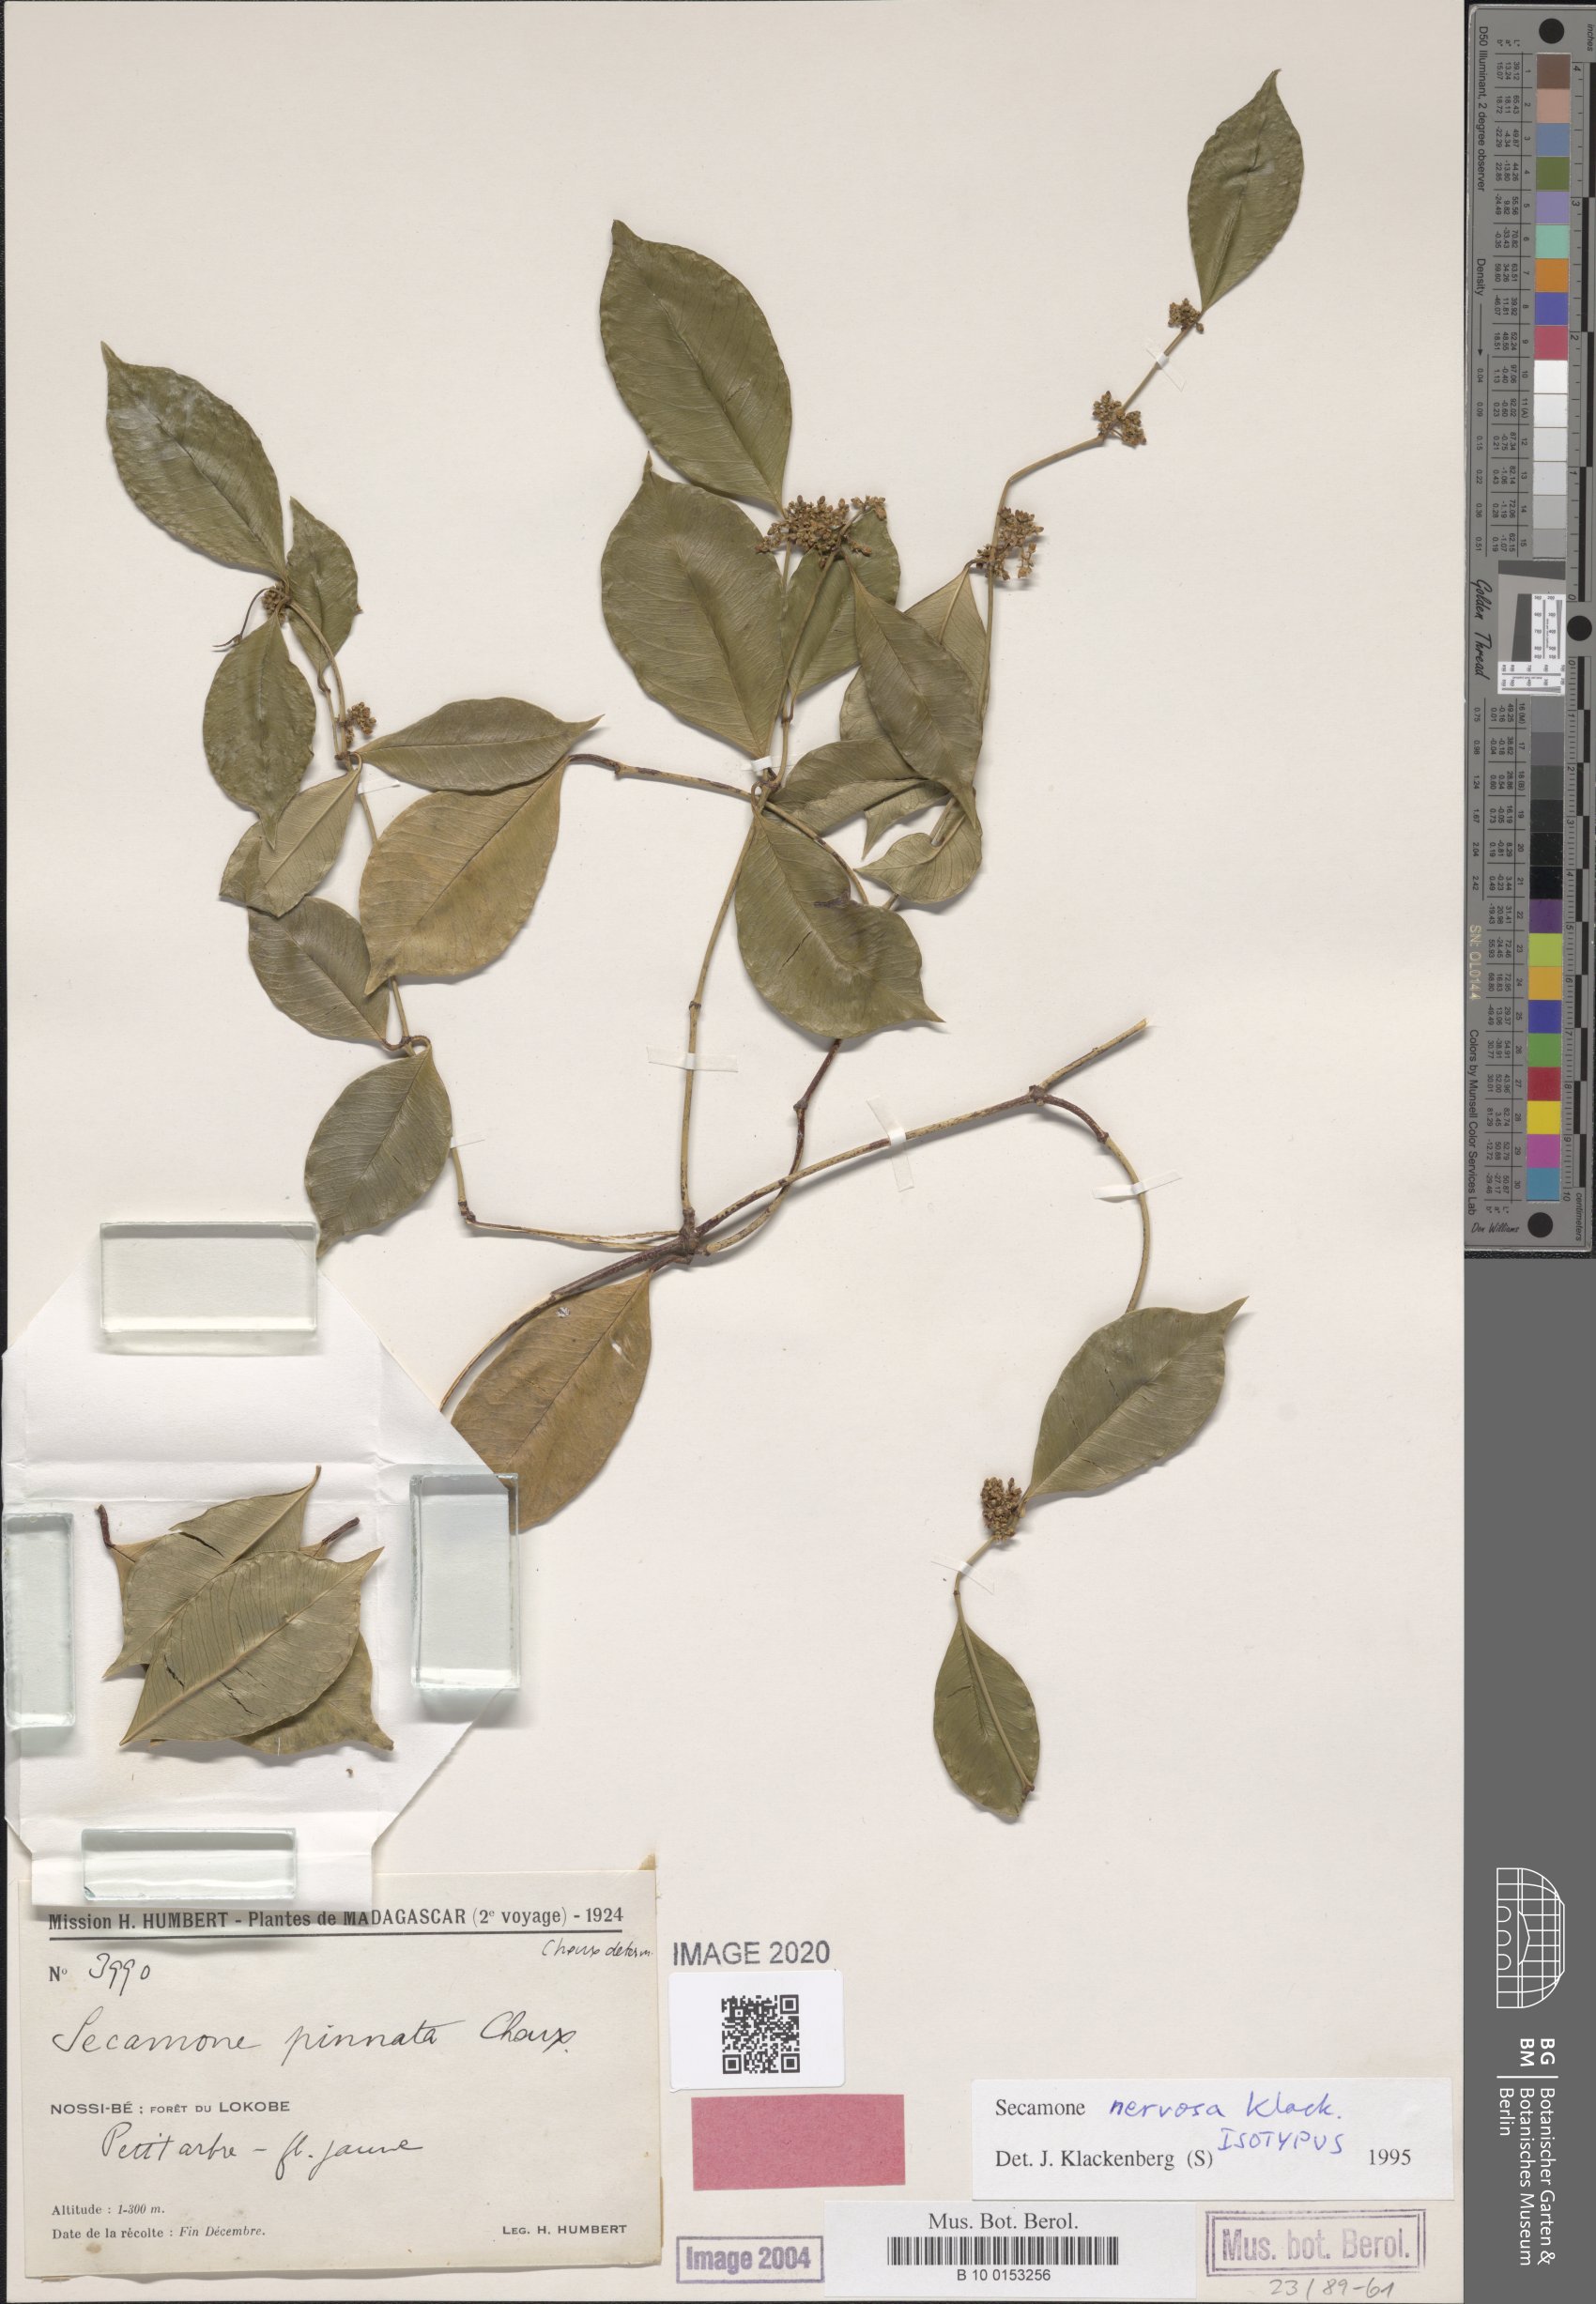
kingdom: Plantae
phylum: Tracheophyta
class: Magnoliopsida
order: Gentianales
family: Apocynaceae
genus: Secamone
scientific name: Secamone nervosa
